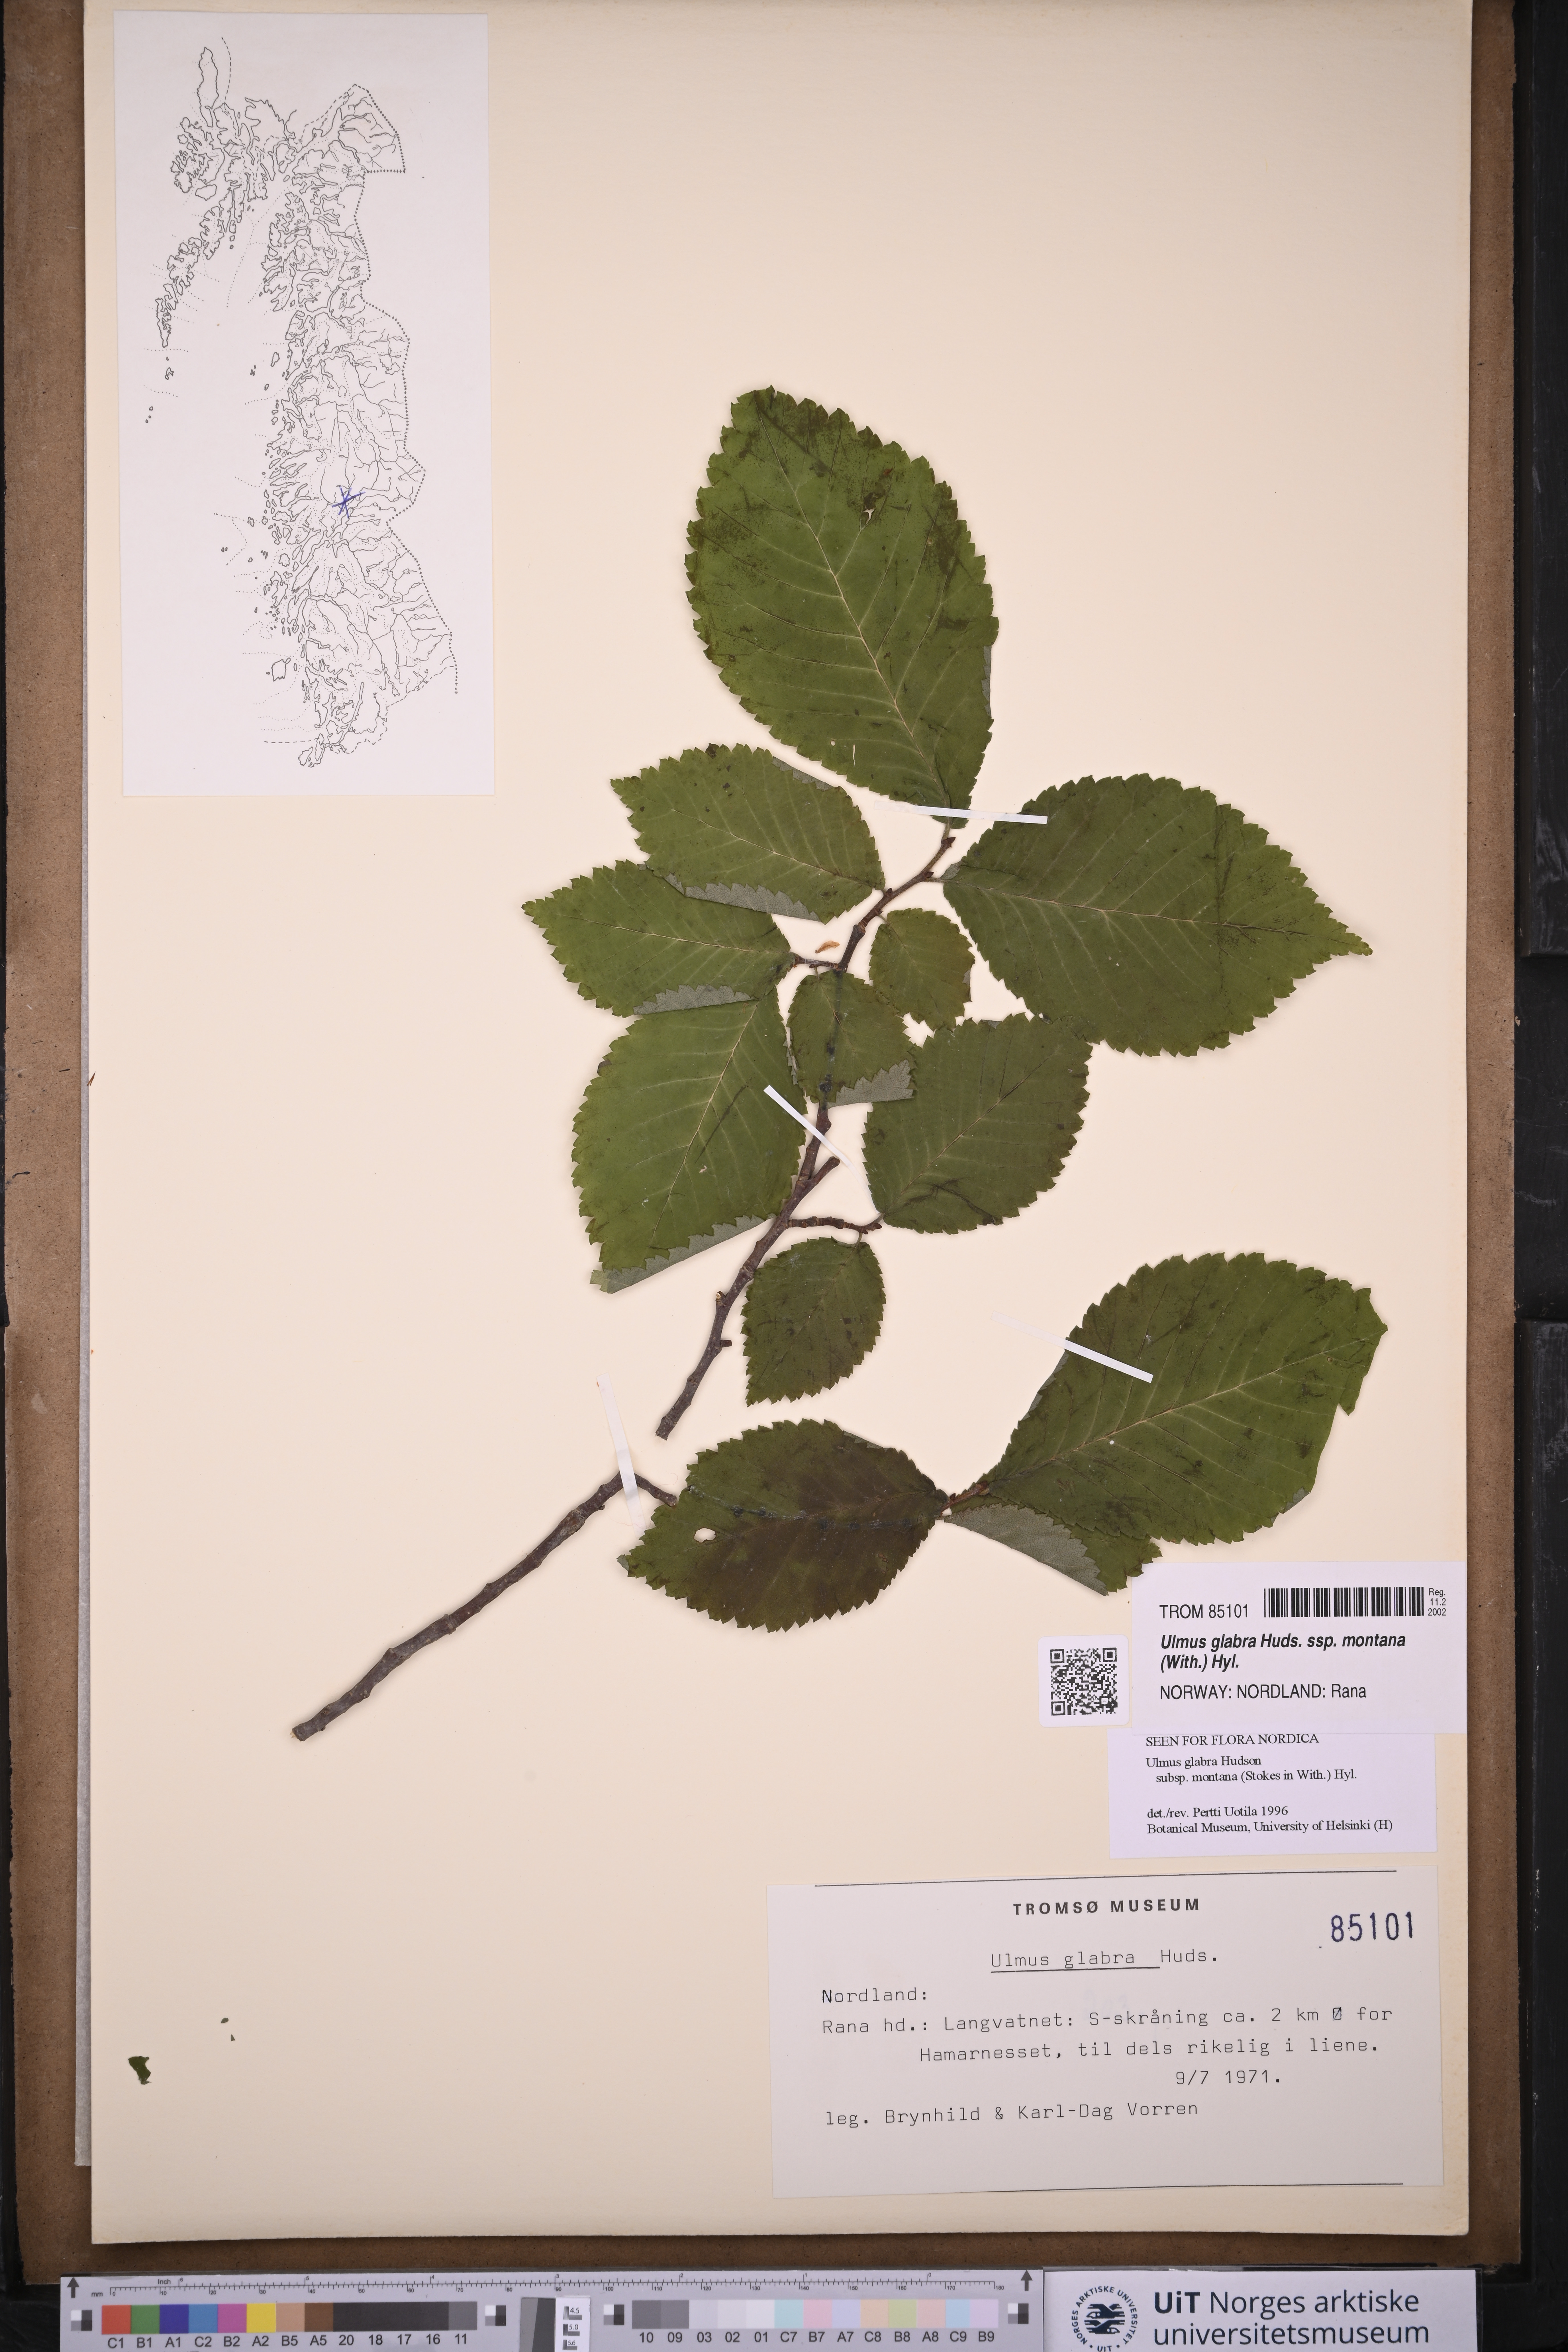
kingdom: Plantae
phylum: Tracheophyta
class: Magnoliopsida
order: Rosales
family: Ulmaceae
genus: Ulmus
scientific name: Ulmus glabra
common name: Wych elm
